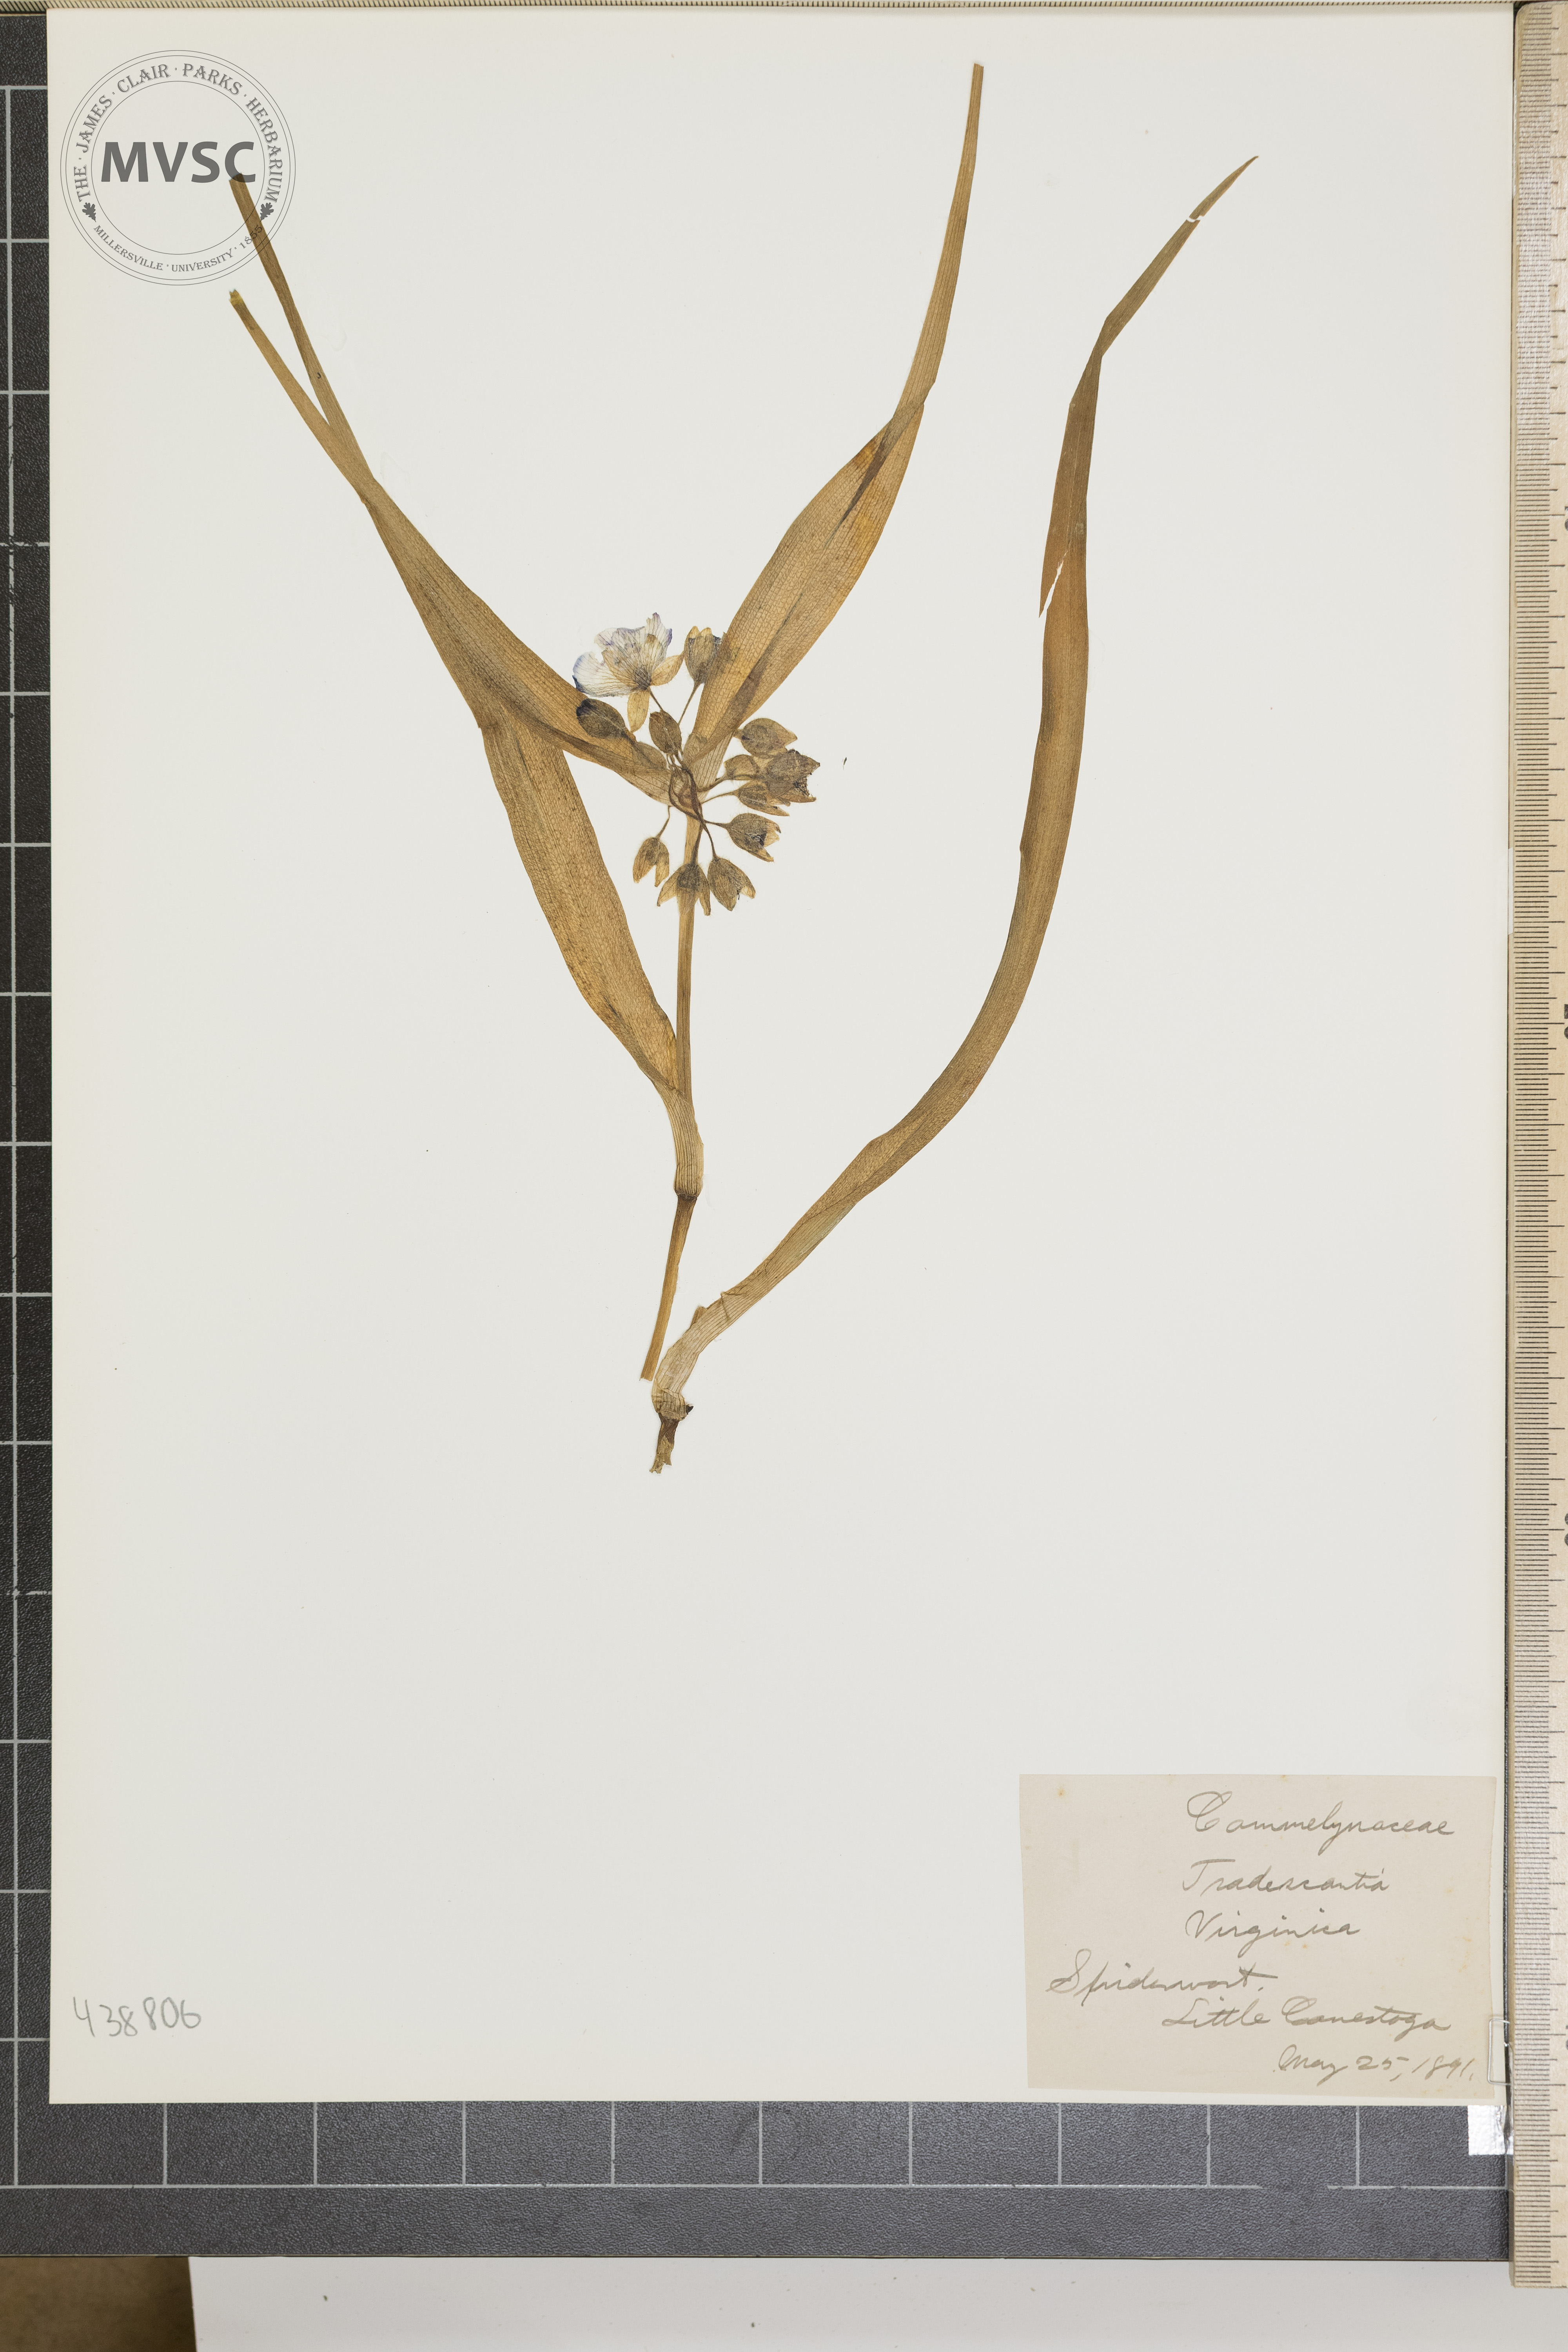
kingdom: Plantae
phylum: Tracheophyta
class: Liliopsida
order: Commelinales
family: Commelinaceae
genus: Tradescantia
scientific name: Tradescantia virginiana
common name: Spiderwort
